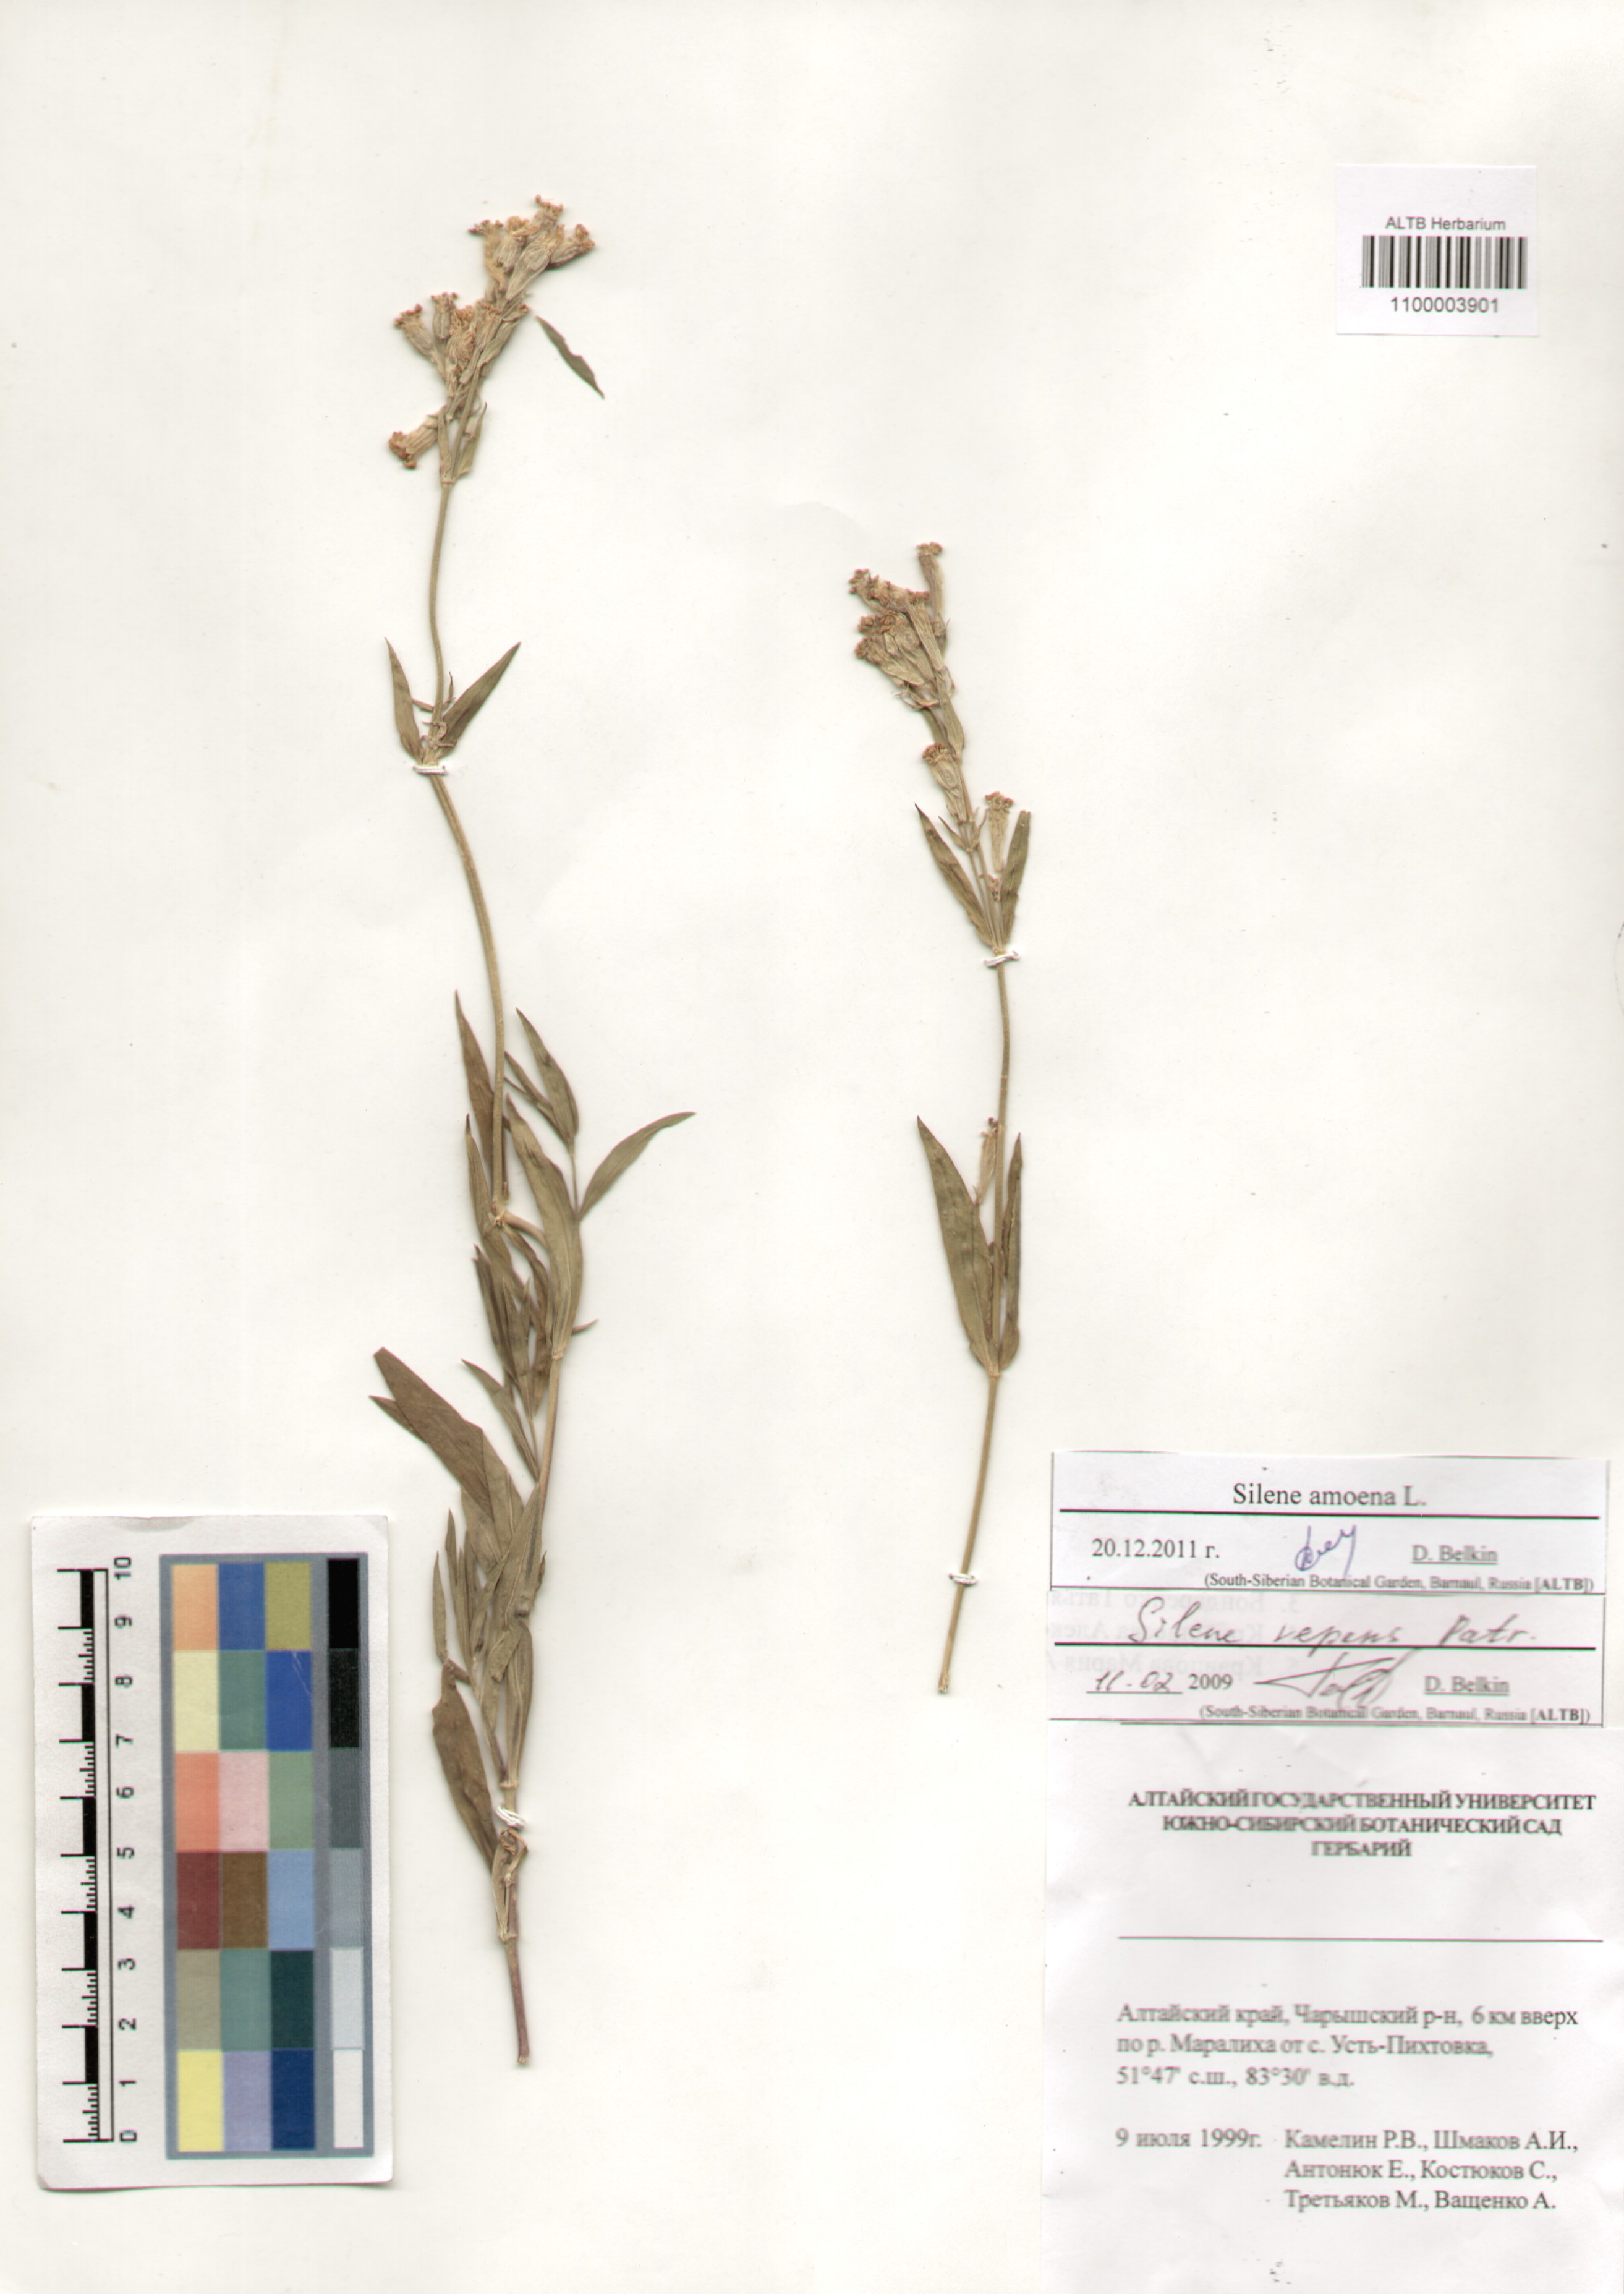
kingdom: Plantae
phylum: Tracheophyta
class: Magnoliopsida
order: Caryophyllales
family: Caryophyllaceae
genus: Silene
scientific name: Silene amoena
